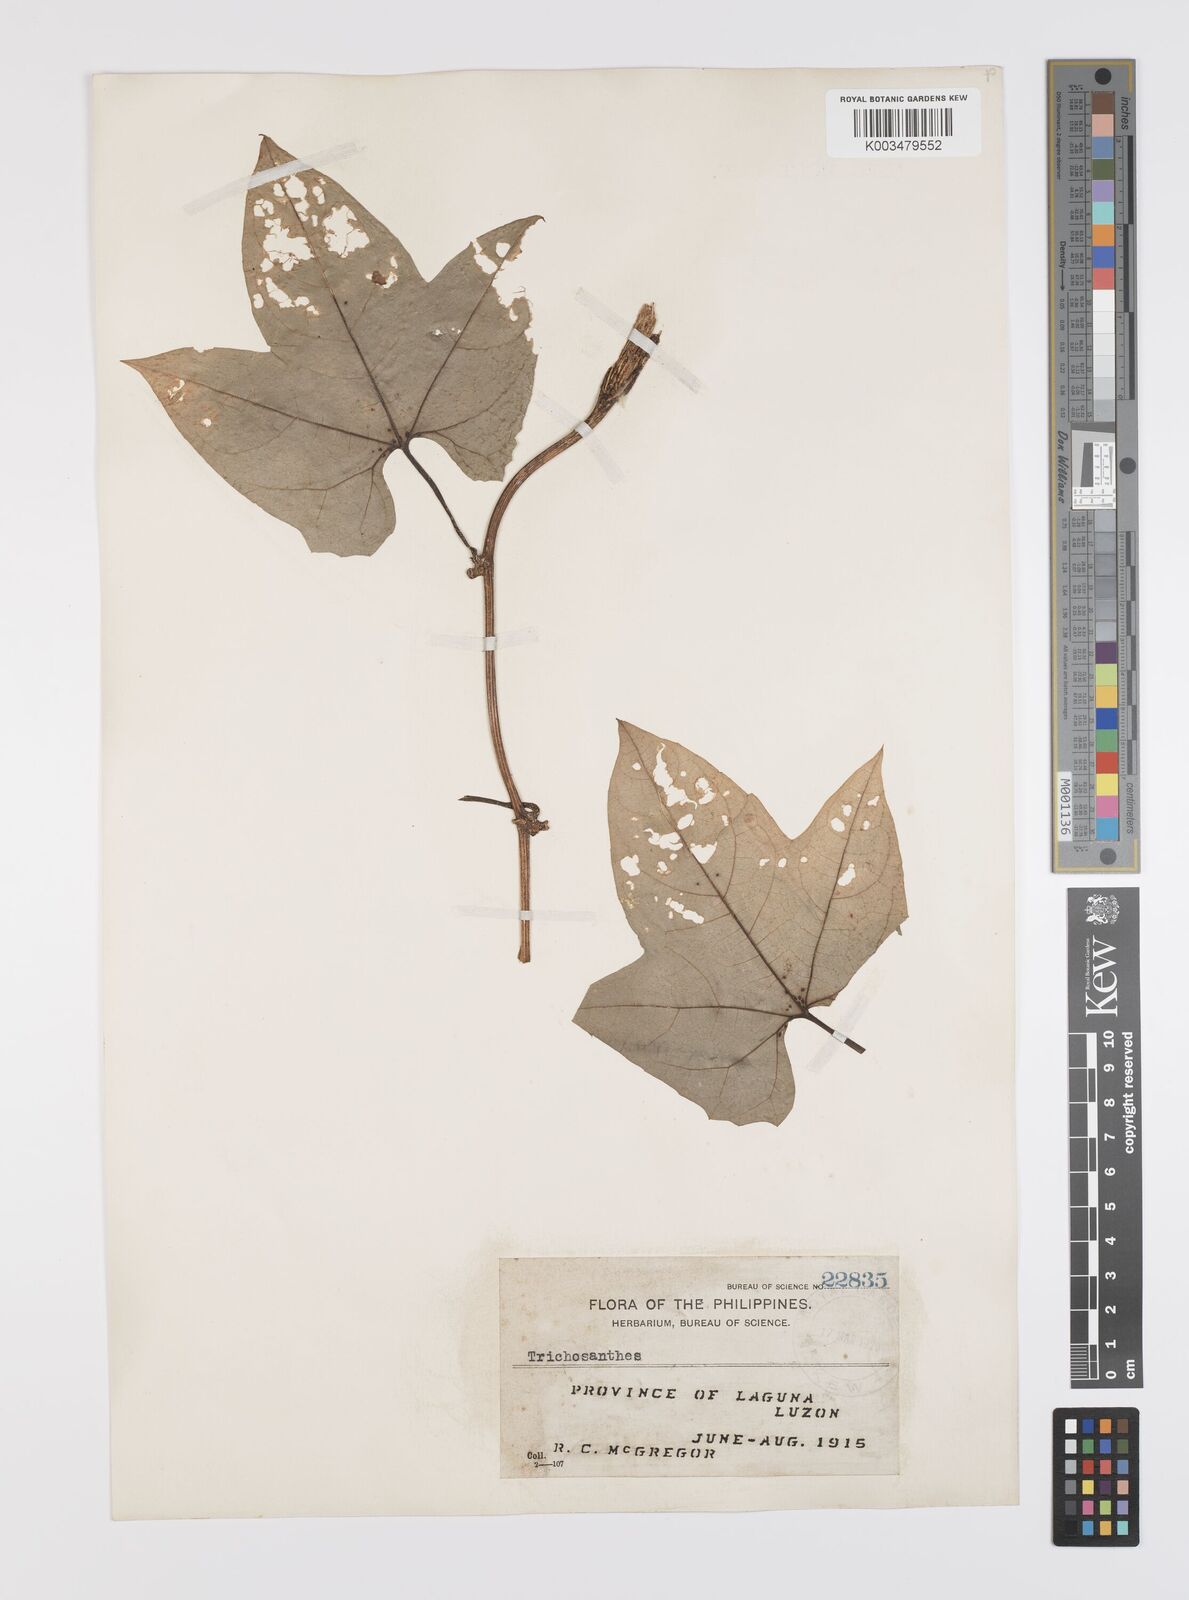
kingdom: Plantae
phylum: Tracheophyta
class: Magnoliopsida
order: Cucurbitales
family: Cucurbitaceae
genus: Trichosanthes
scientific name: Trichosanthes tricuspidata
